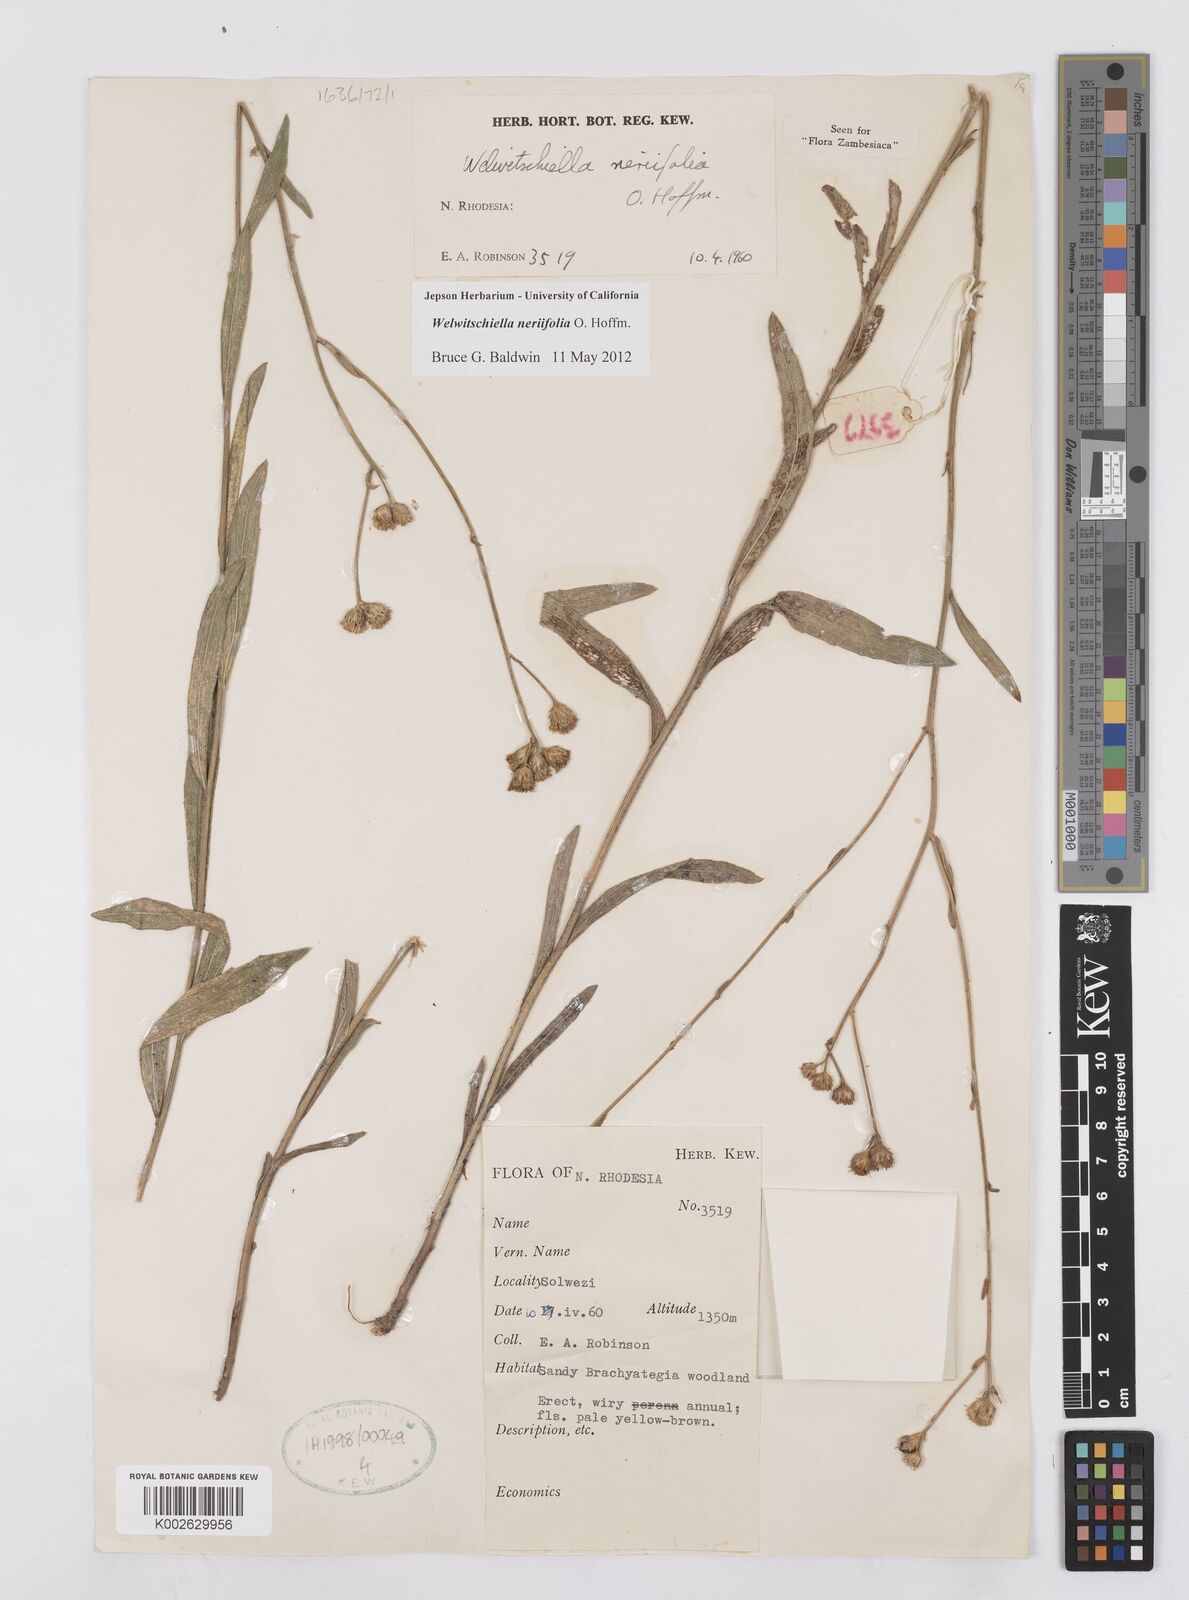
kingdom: Plantae
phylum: Tracheophyta
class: Magnoliopsida
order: Asterales
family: Asteraceae
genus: Welwitschiella
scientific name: Welwitschiella neriifolia
